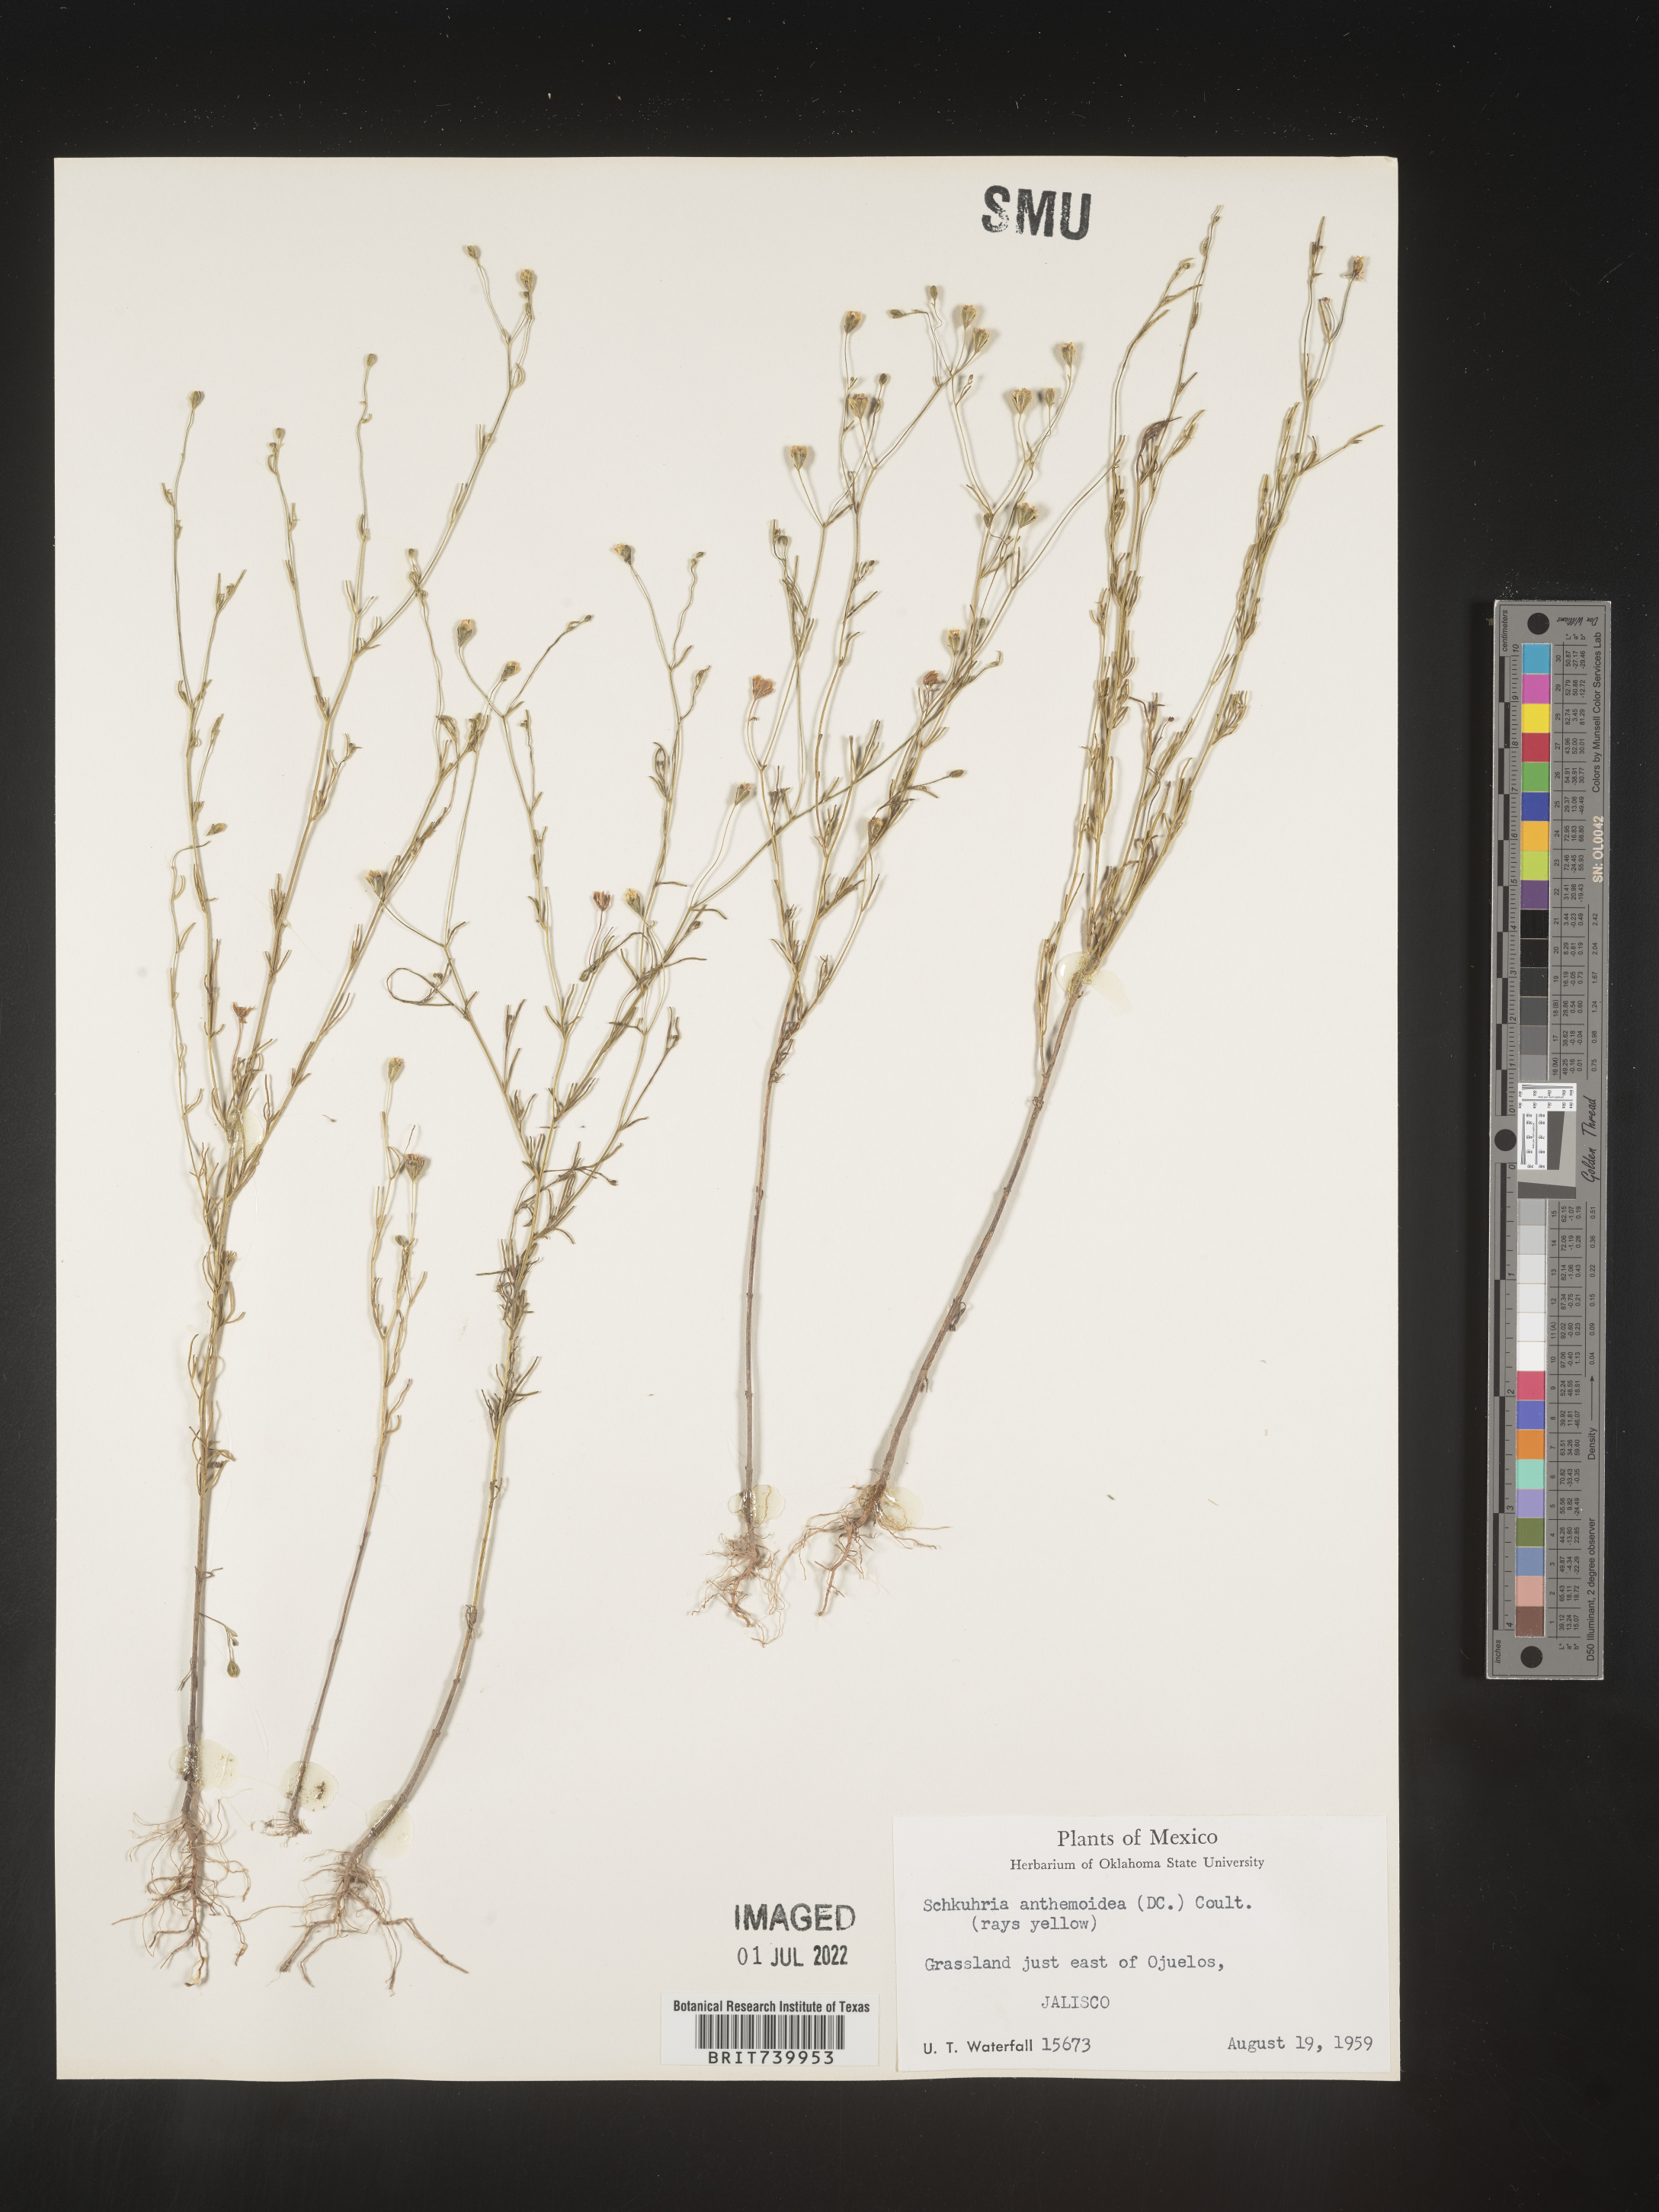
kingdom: Plantae
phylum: Tracheophyta
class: Magnoliopsida
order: Asterales
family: Asteraceae
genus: Schkuhria
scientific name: Schkuhria
